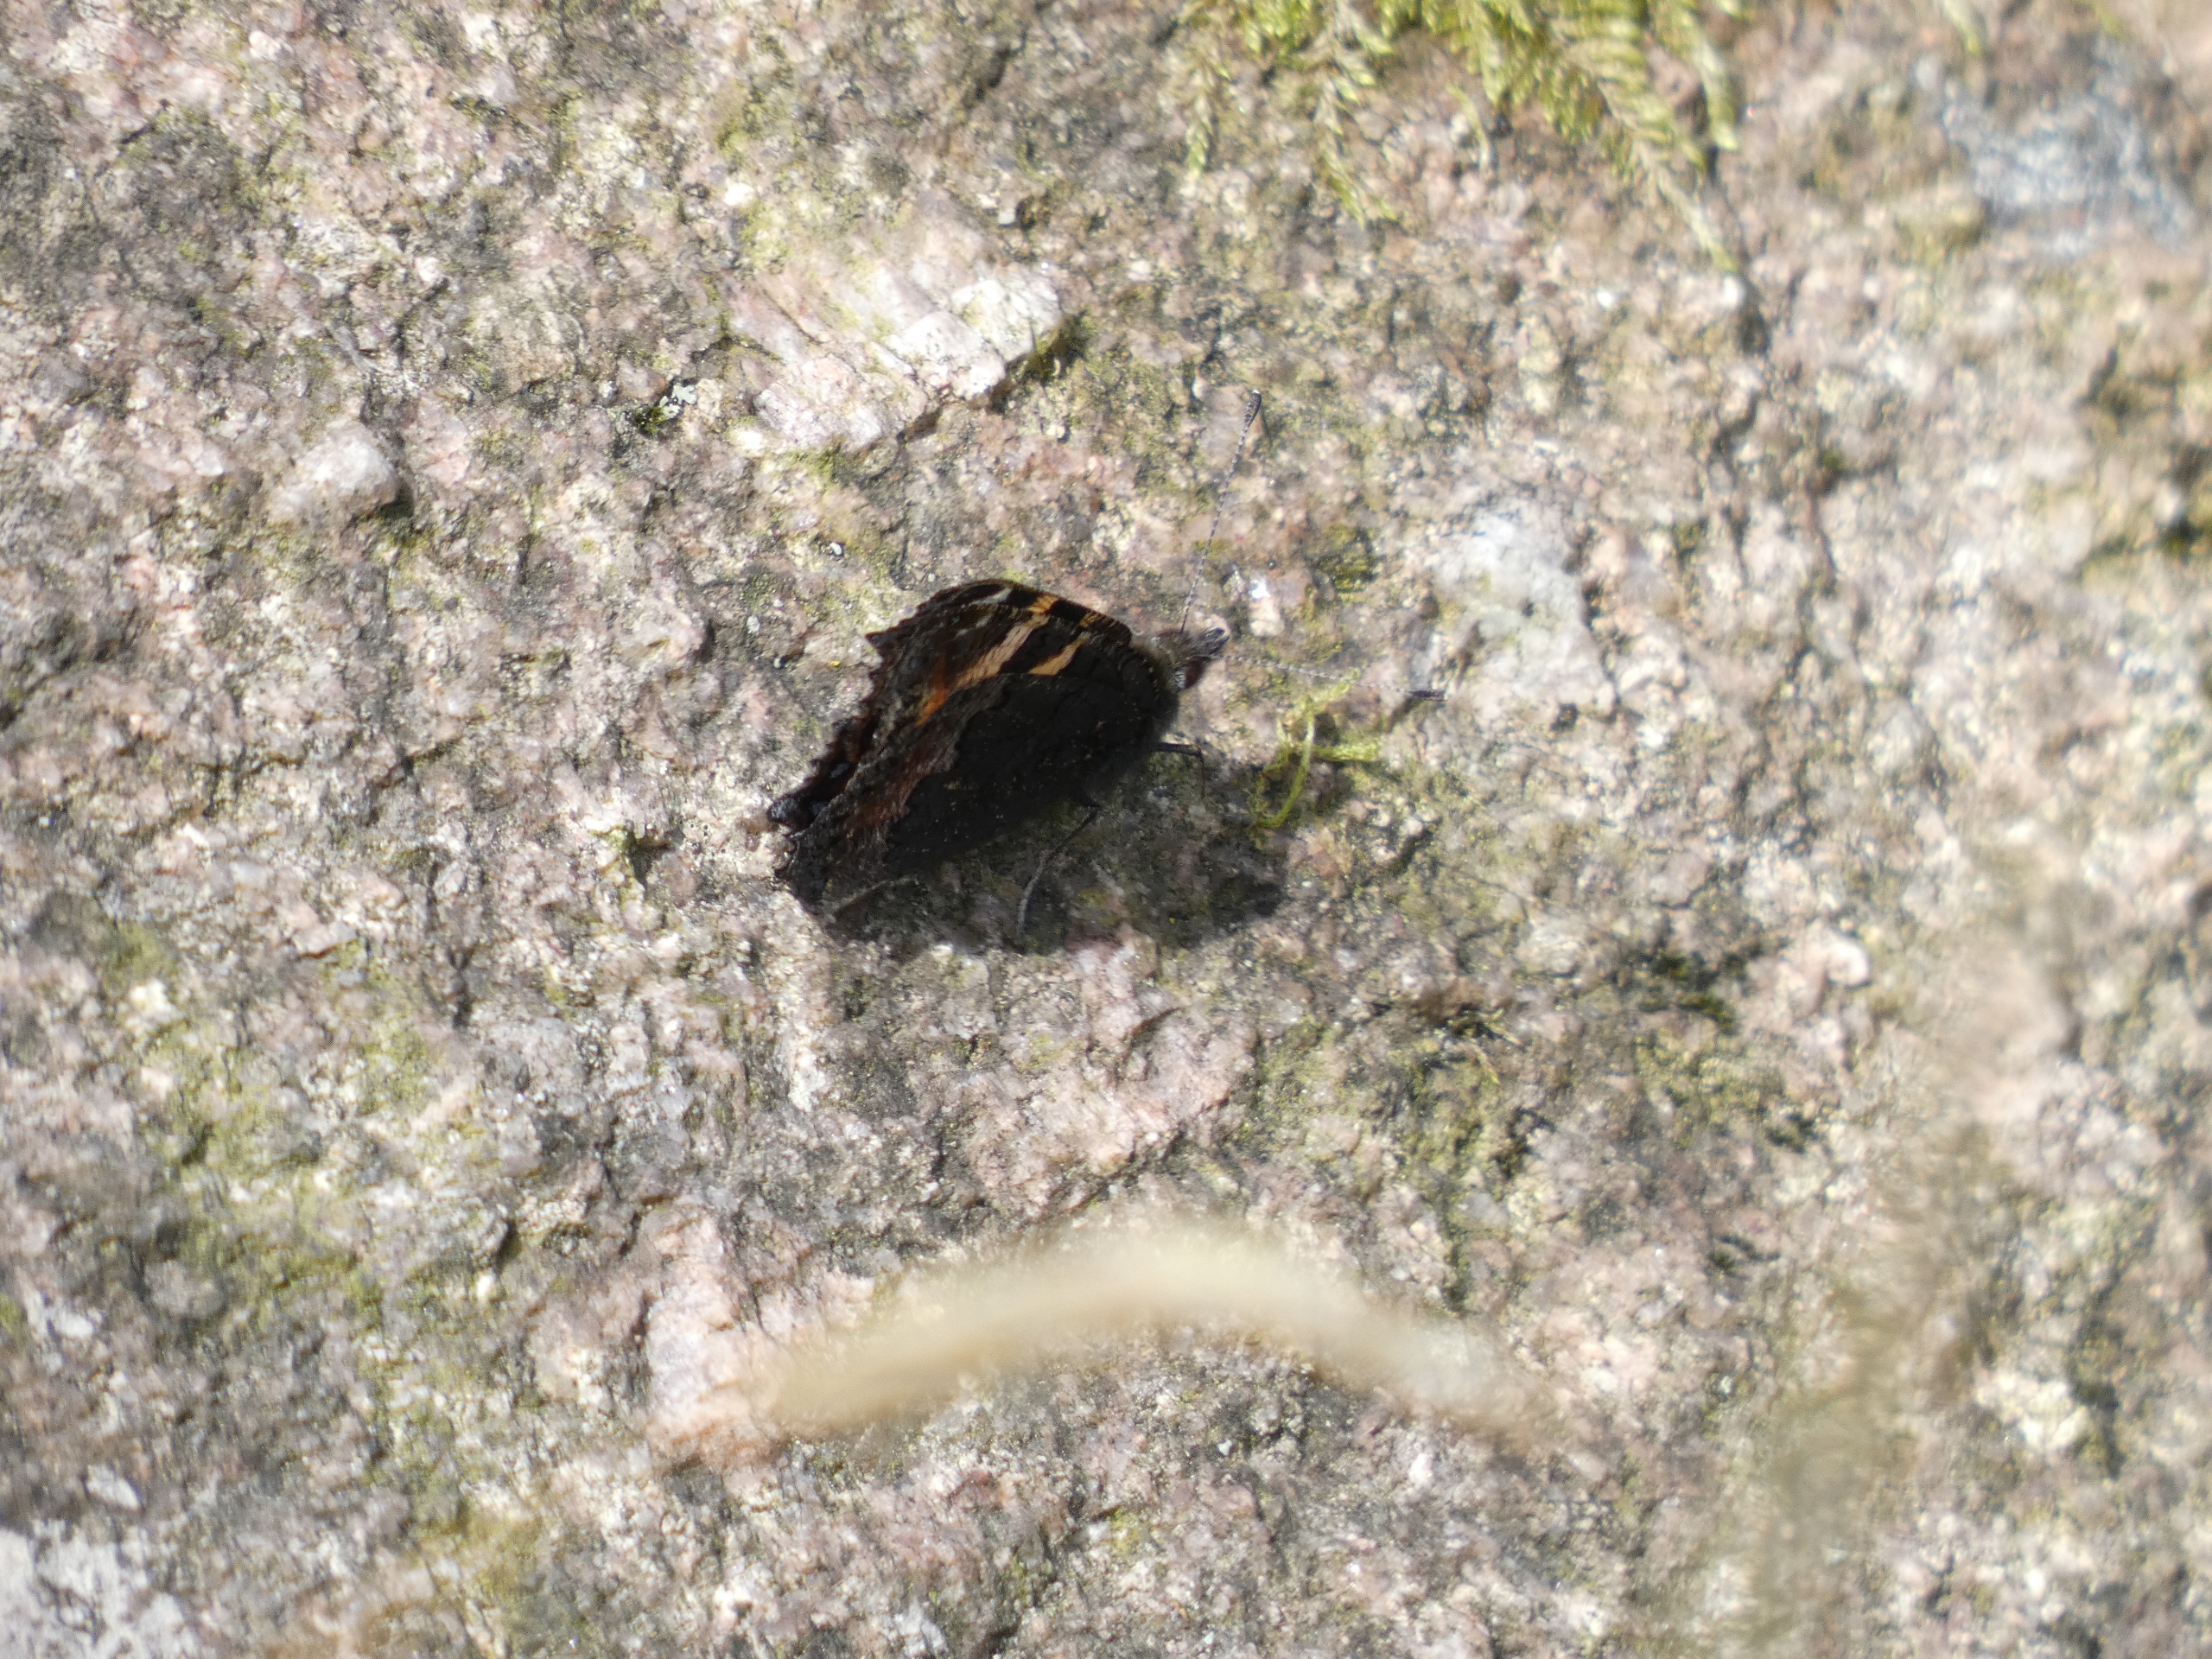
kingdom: Animalia
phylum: Arthropoda
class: Insecta
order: Lepidoptera
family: Nymphalidae
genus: Aglais
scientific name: Aglais urticae
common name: Nældens takvinge
